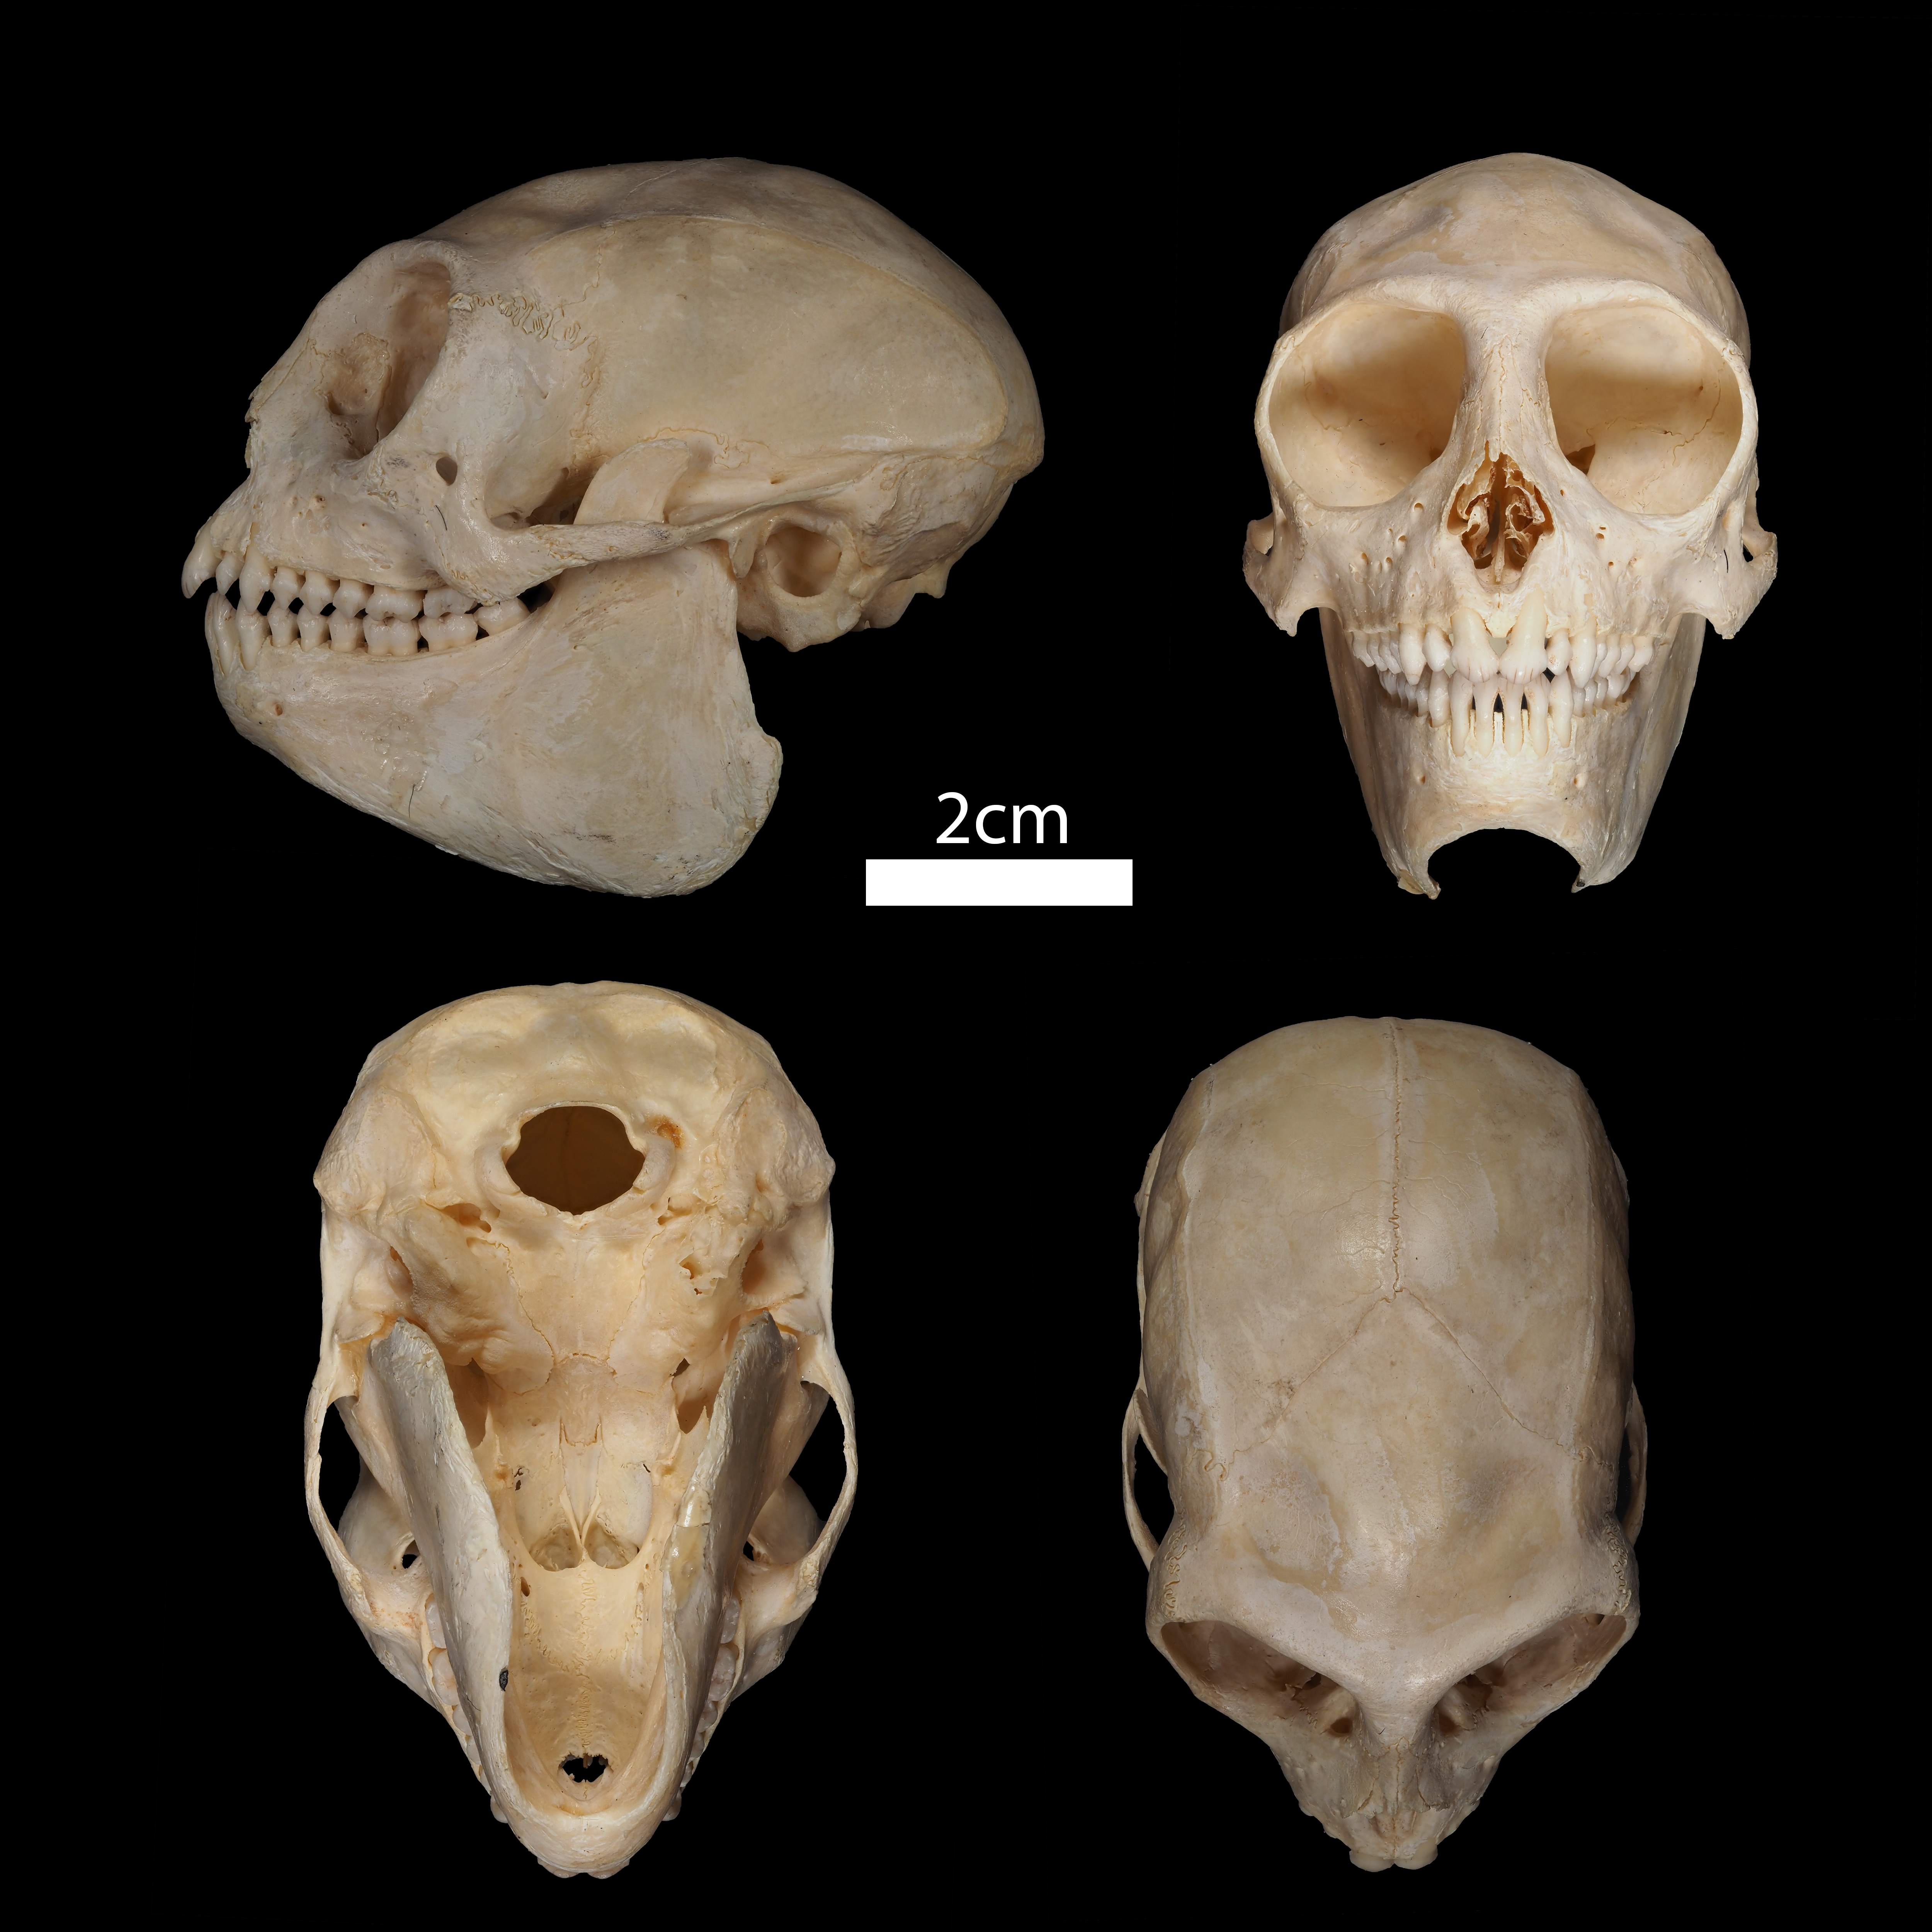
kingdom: Animalia
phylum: Chordata
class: Mammalia
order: Primates
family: Cebidae
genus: Saimiri
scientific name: Saimiri
